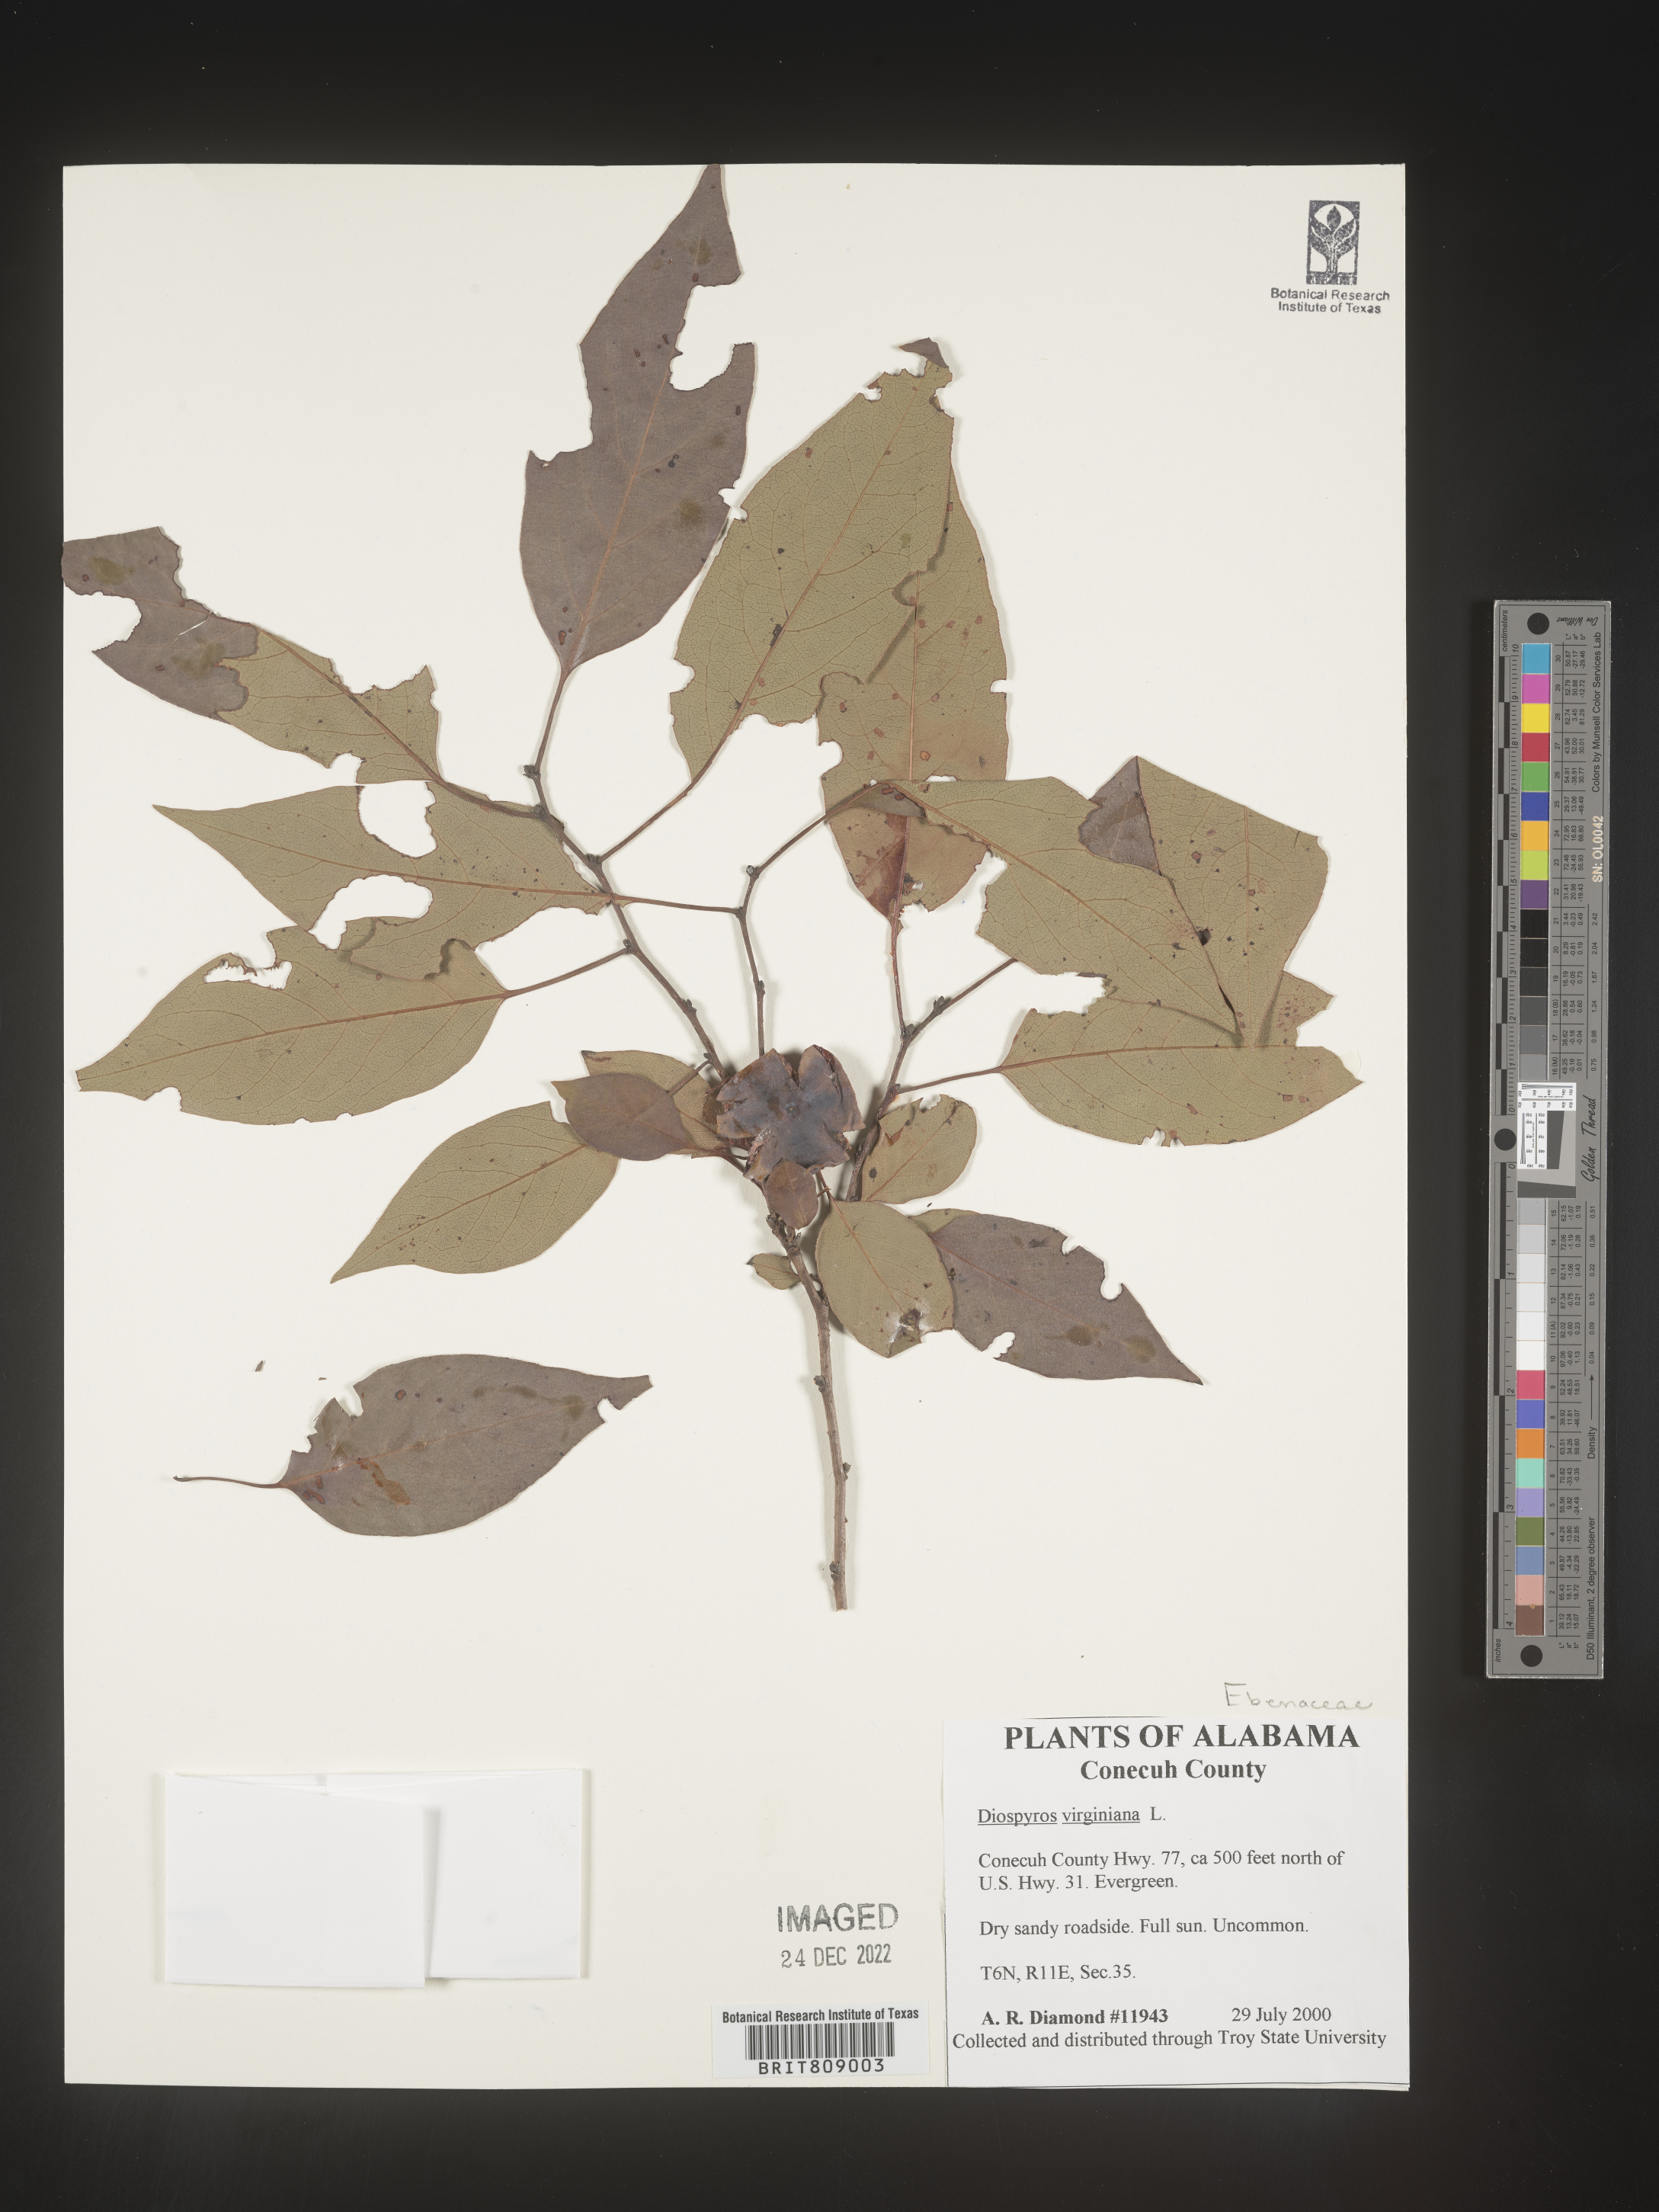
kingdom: Plantae
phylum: Tracheophyta
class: Magnoliopsida
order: Ericales
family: Ebenaceae
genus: Diospyros
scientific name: Diospyros virginiana
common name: Persimmon
